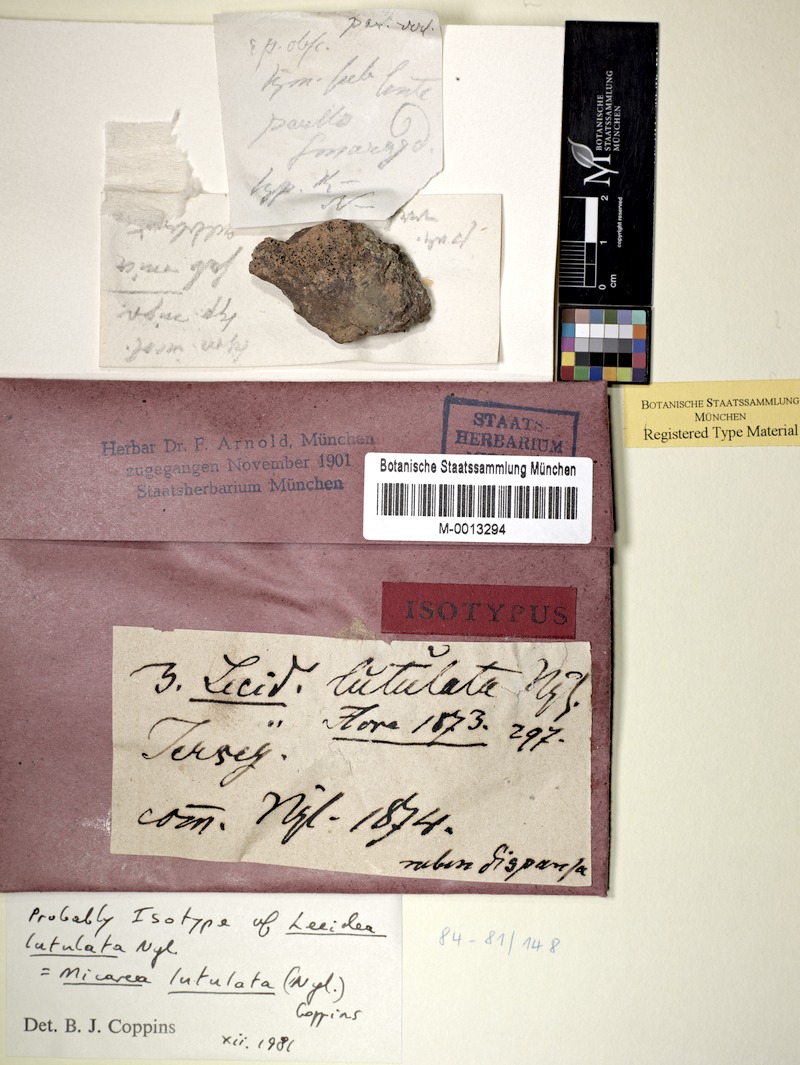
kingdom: Fungi
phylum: Ascomycota
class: Lecanoromycetes
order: Lecanorales
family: Psoraceae
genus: Brianaria
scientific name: Brianaria lutulata
